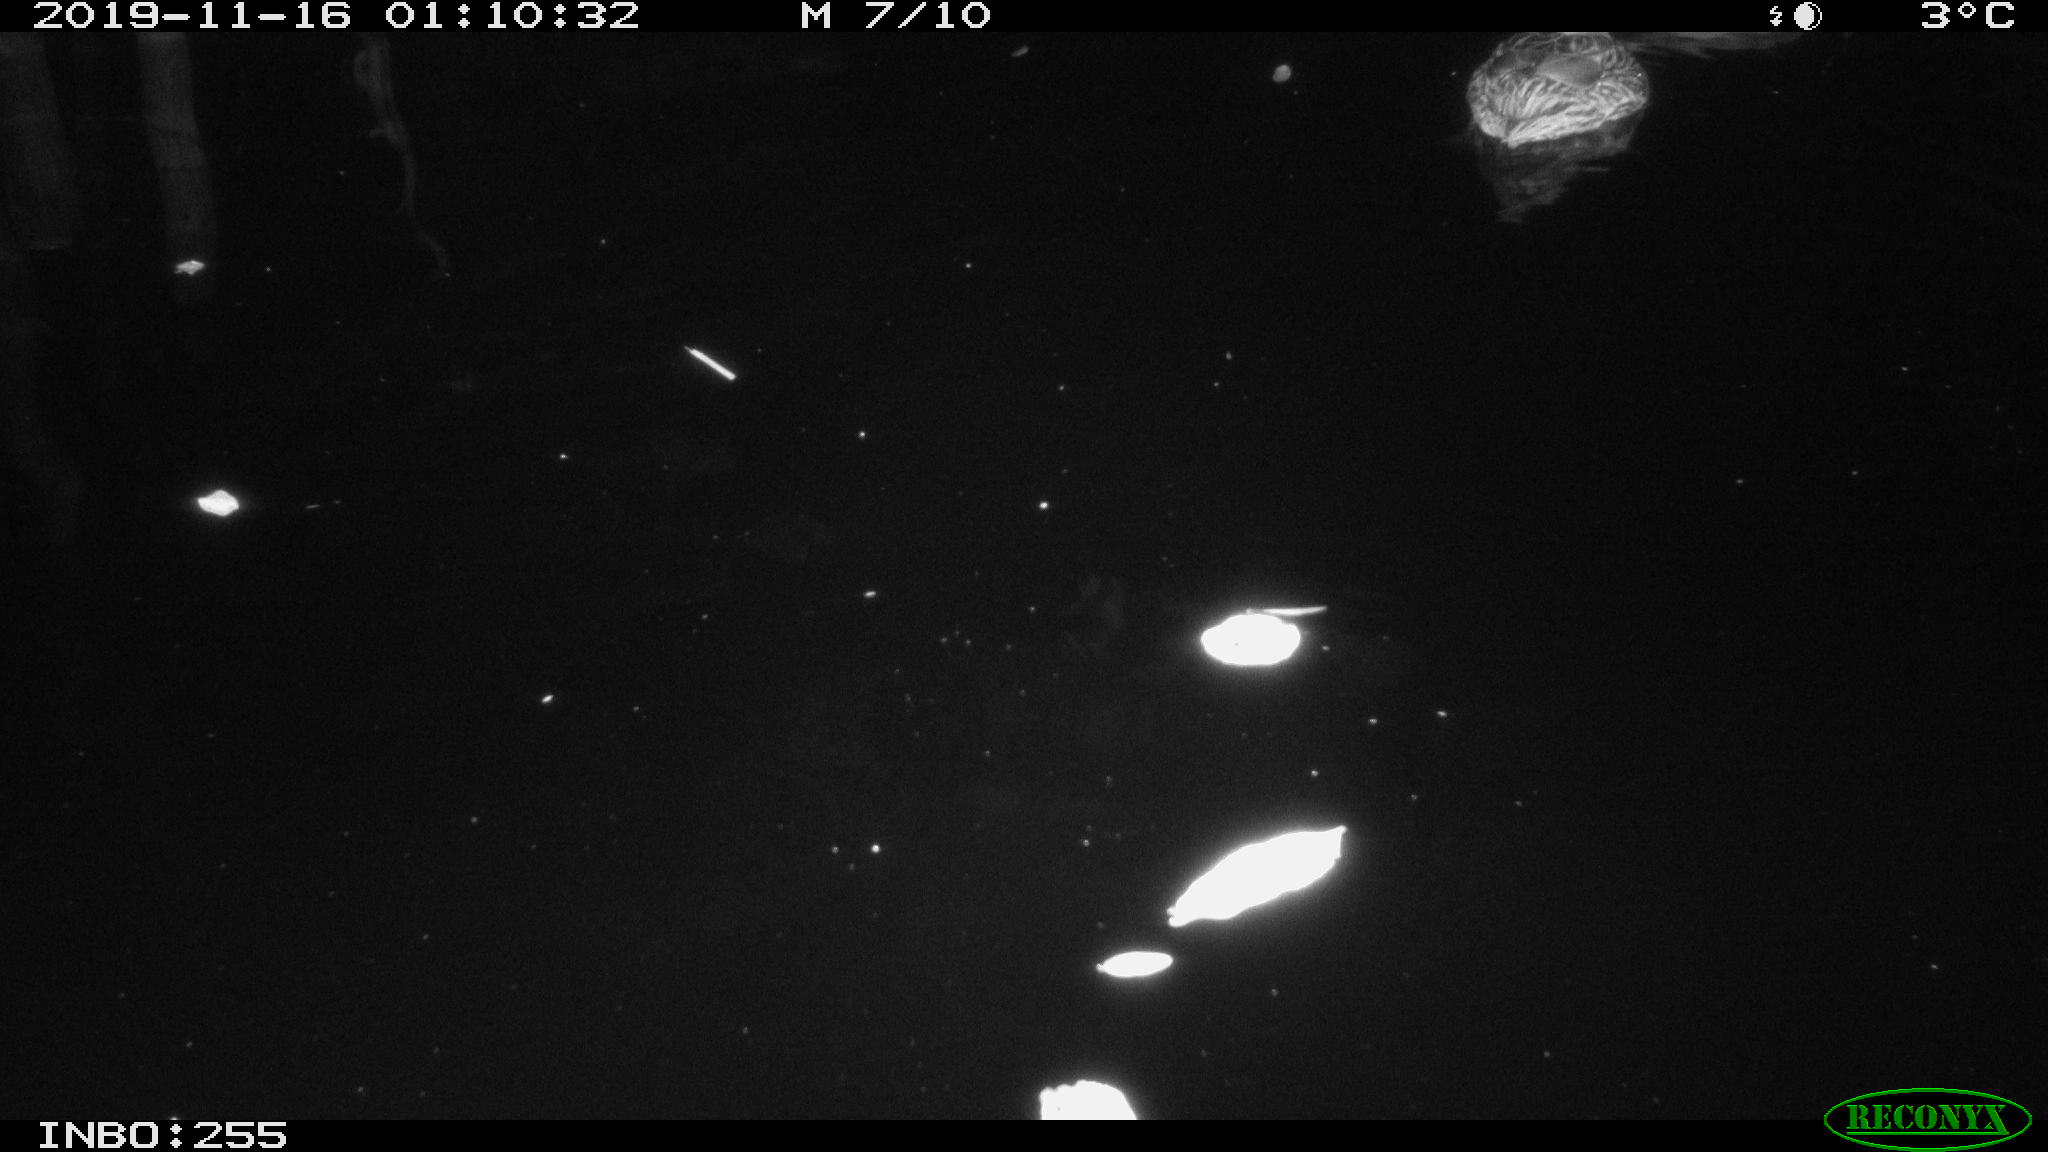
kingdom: Animalia
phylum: Chordata
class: Aves
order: Anseriformes
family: Anatidae
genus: Anas
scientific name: Anas platyrhynchos
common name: Mallard
